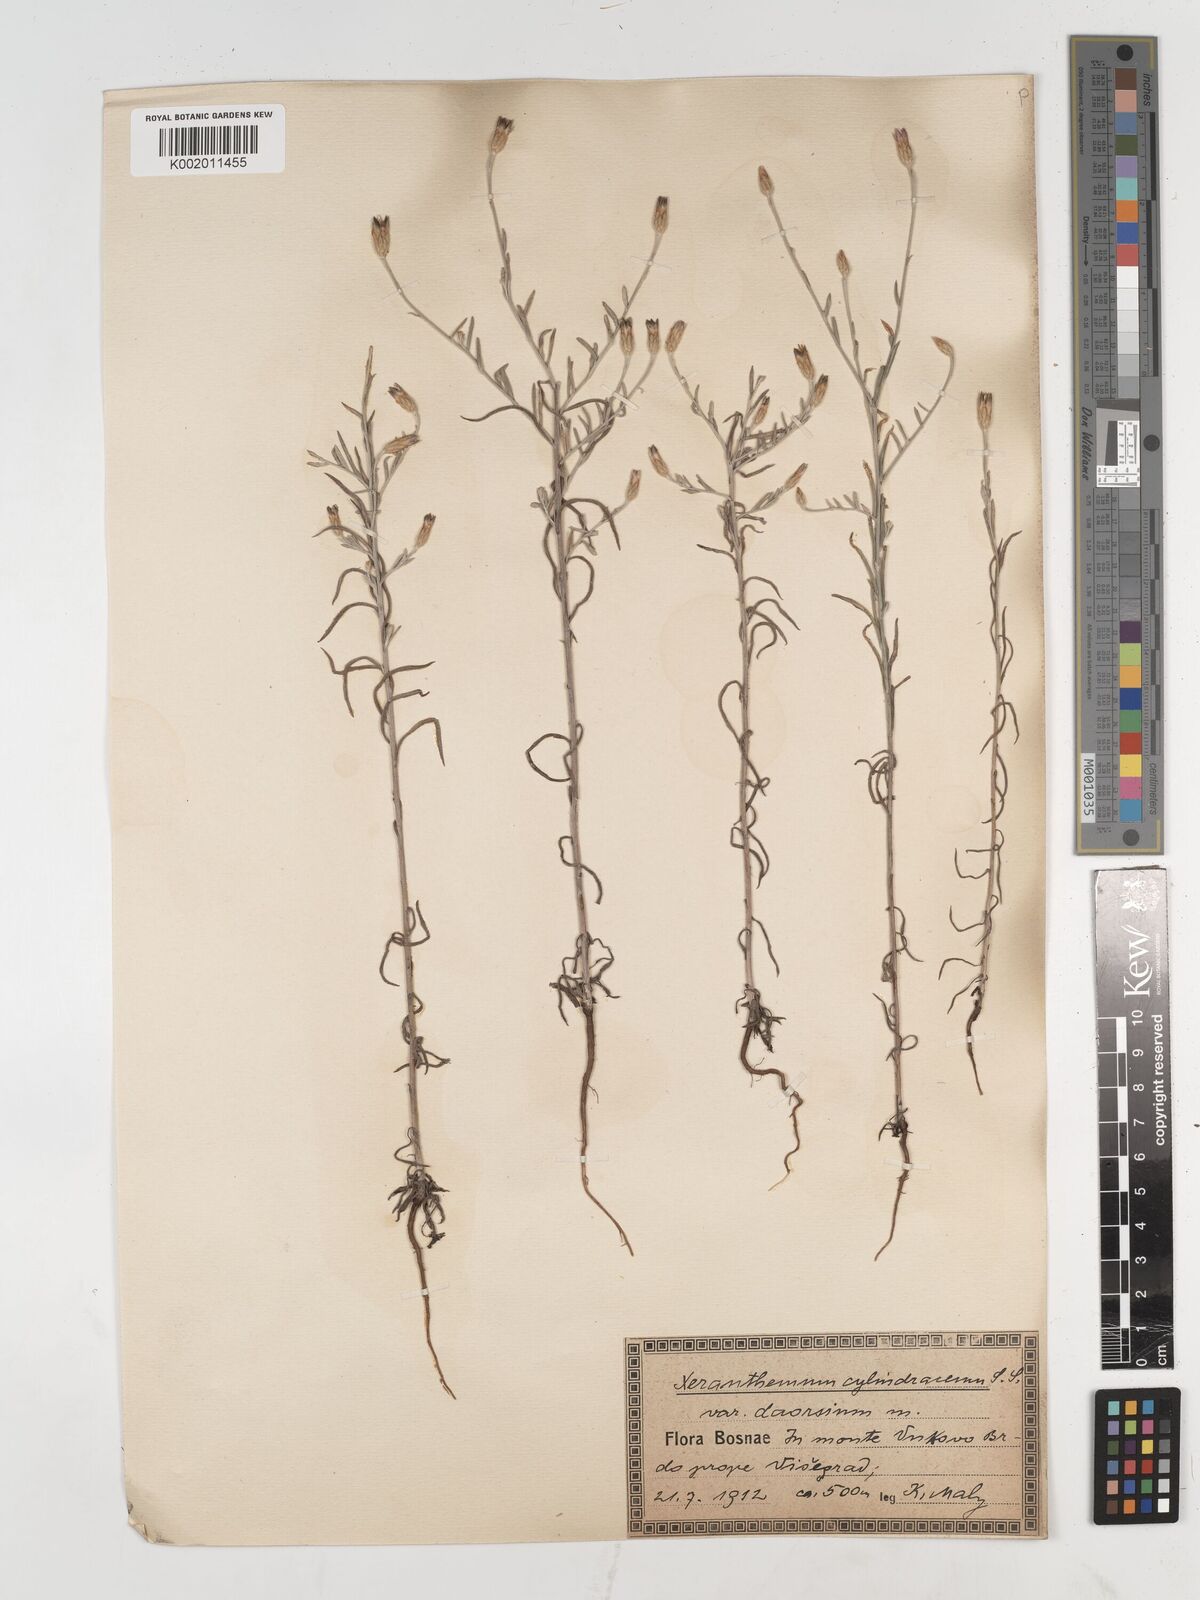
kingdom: Plantae
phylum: Tracheophyta
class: Magnoliopsida
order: Asterales
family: Asteraceae
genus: Xeranthemum
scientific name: Xeranthemum cylindraceum
